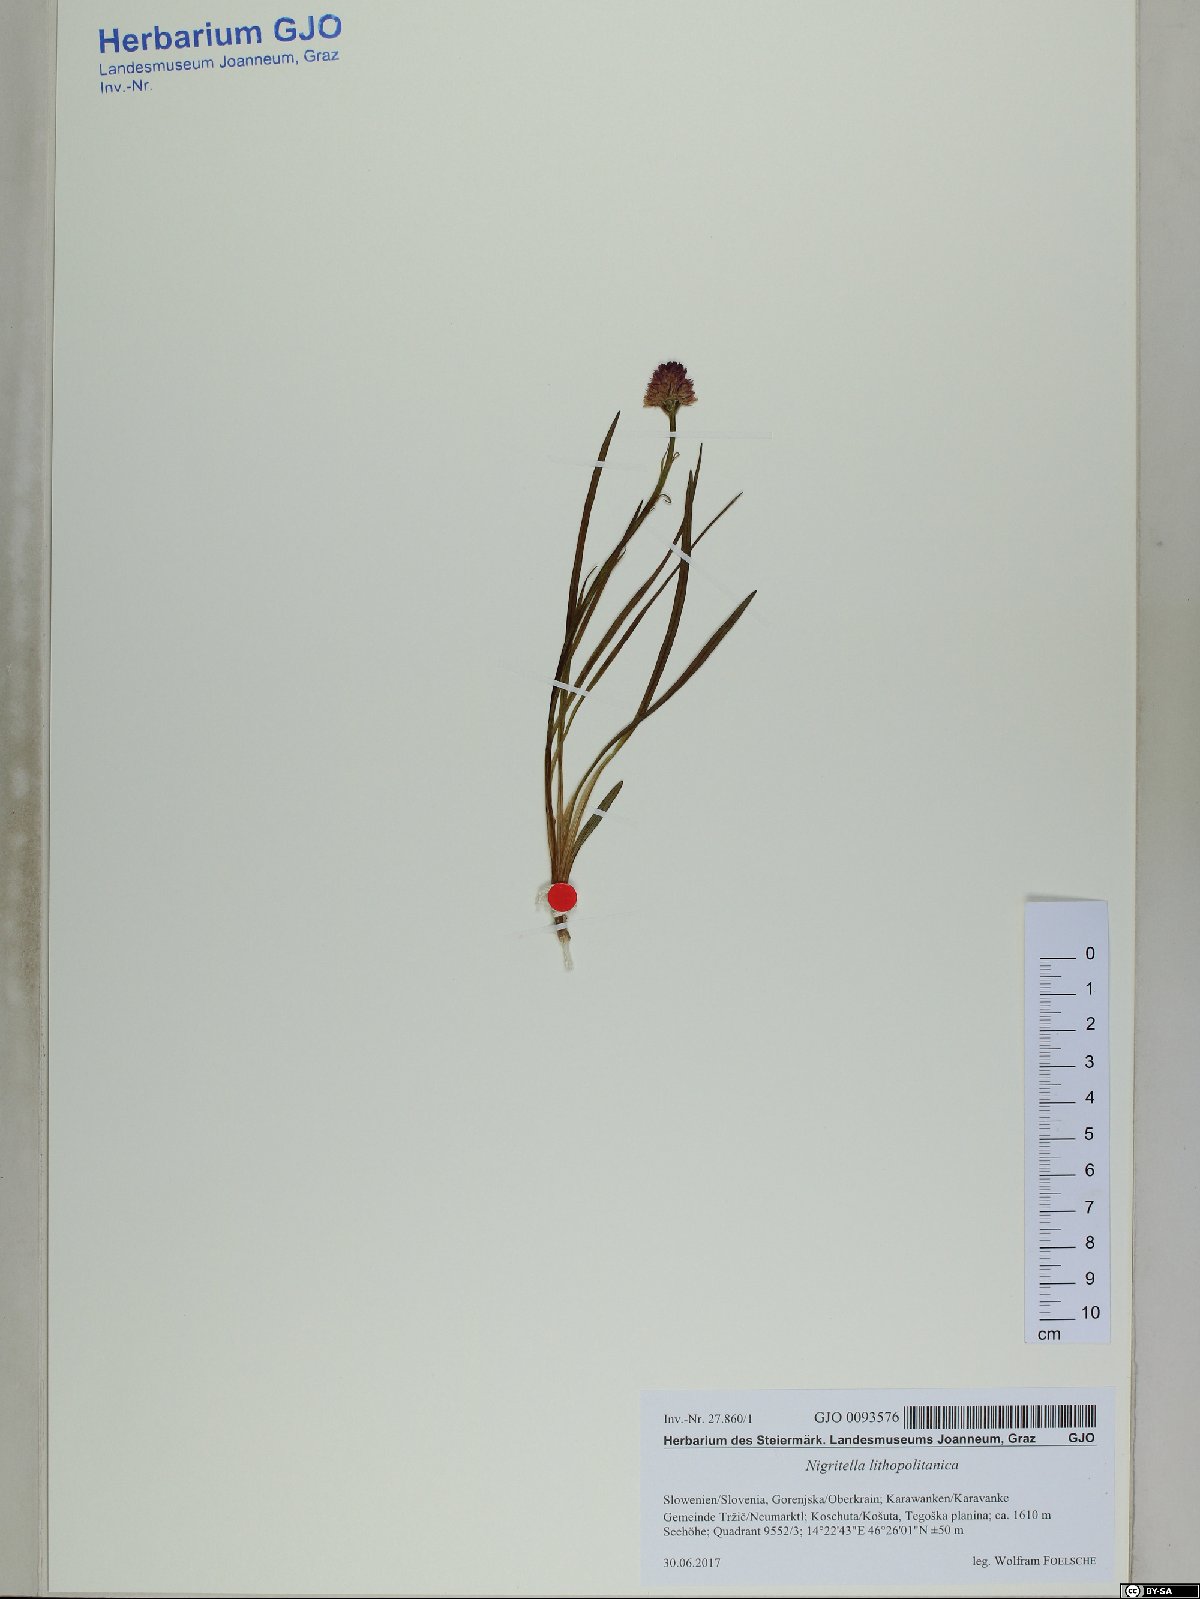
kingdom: Plantae
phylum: Tracheophyta
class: Liliopsida
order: Asparagales
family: Orchidaceae
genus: Gymnadenia
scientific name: Gymnadenia lithopolitanica
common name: Austrian gymnadenia
